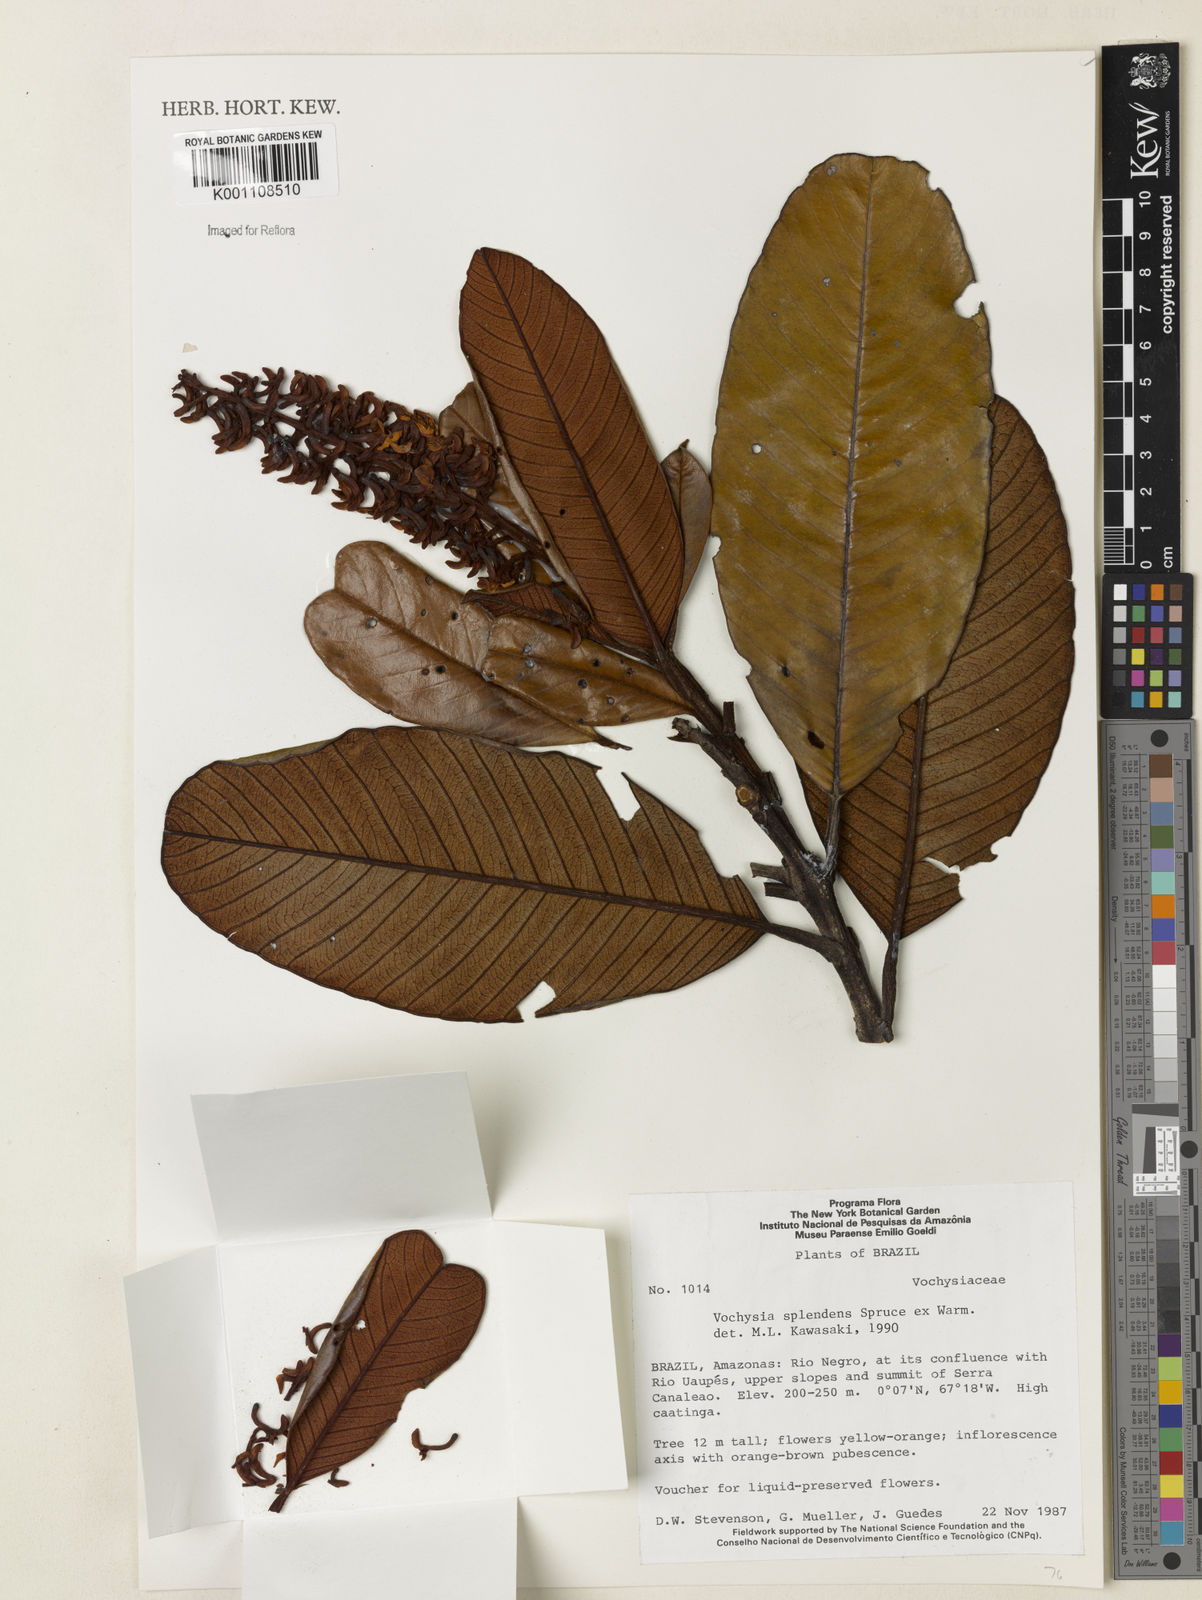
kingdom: Plantae
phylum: Tracheophyta
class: Magnoliopsida
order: Myrtales
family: Vochysiaceae
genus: Vochysia
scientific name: Vochysia splendens
